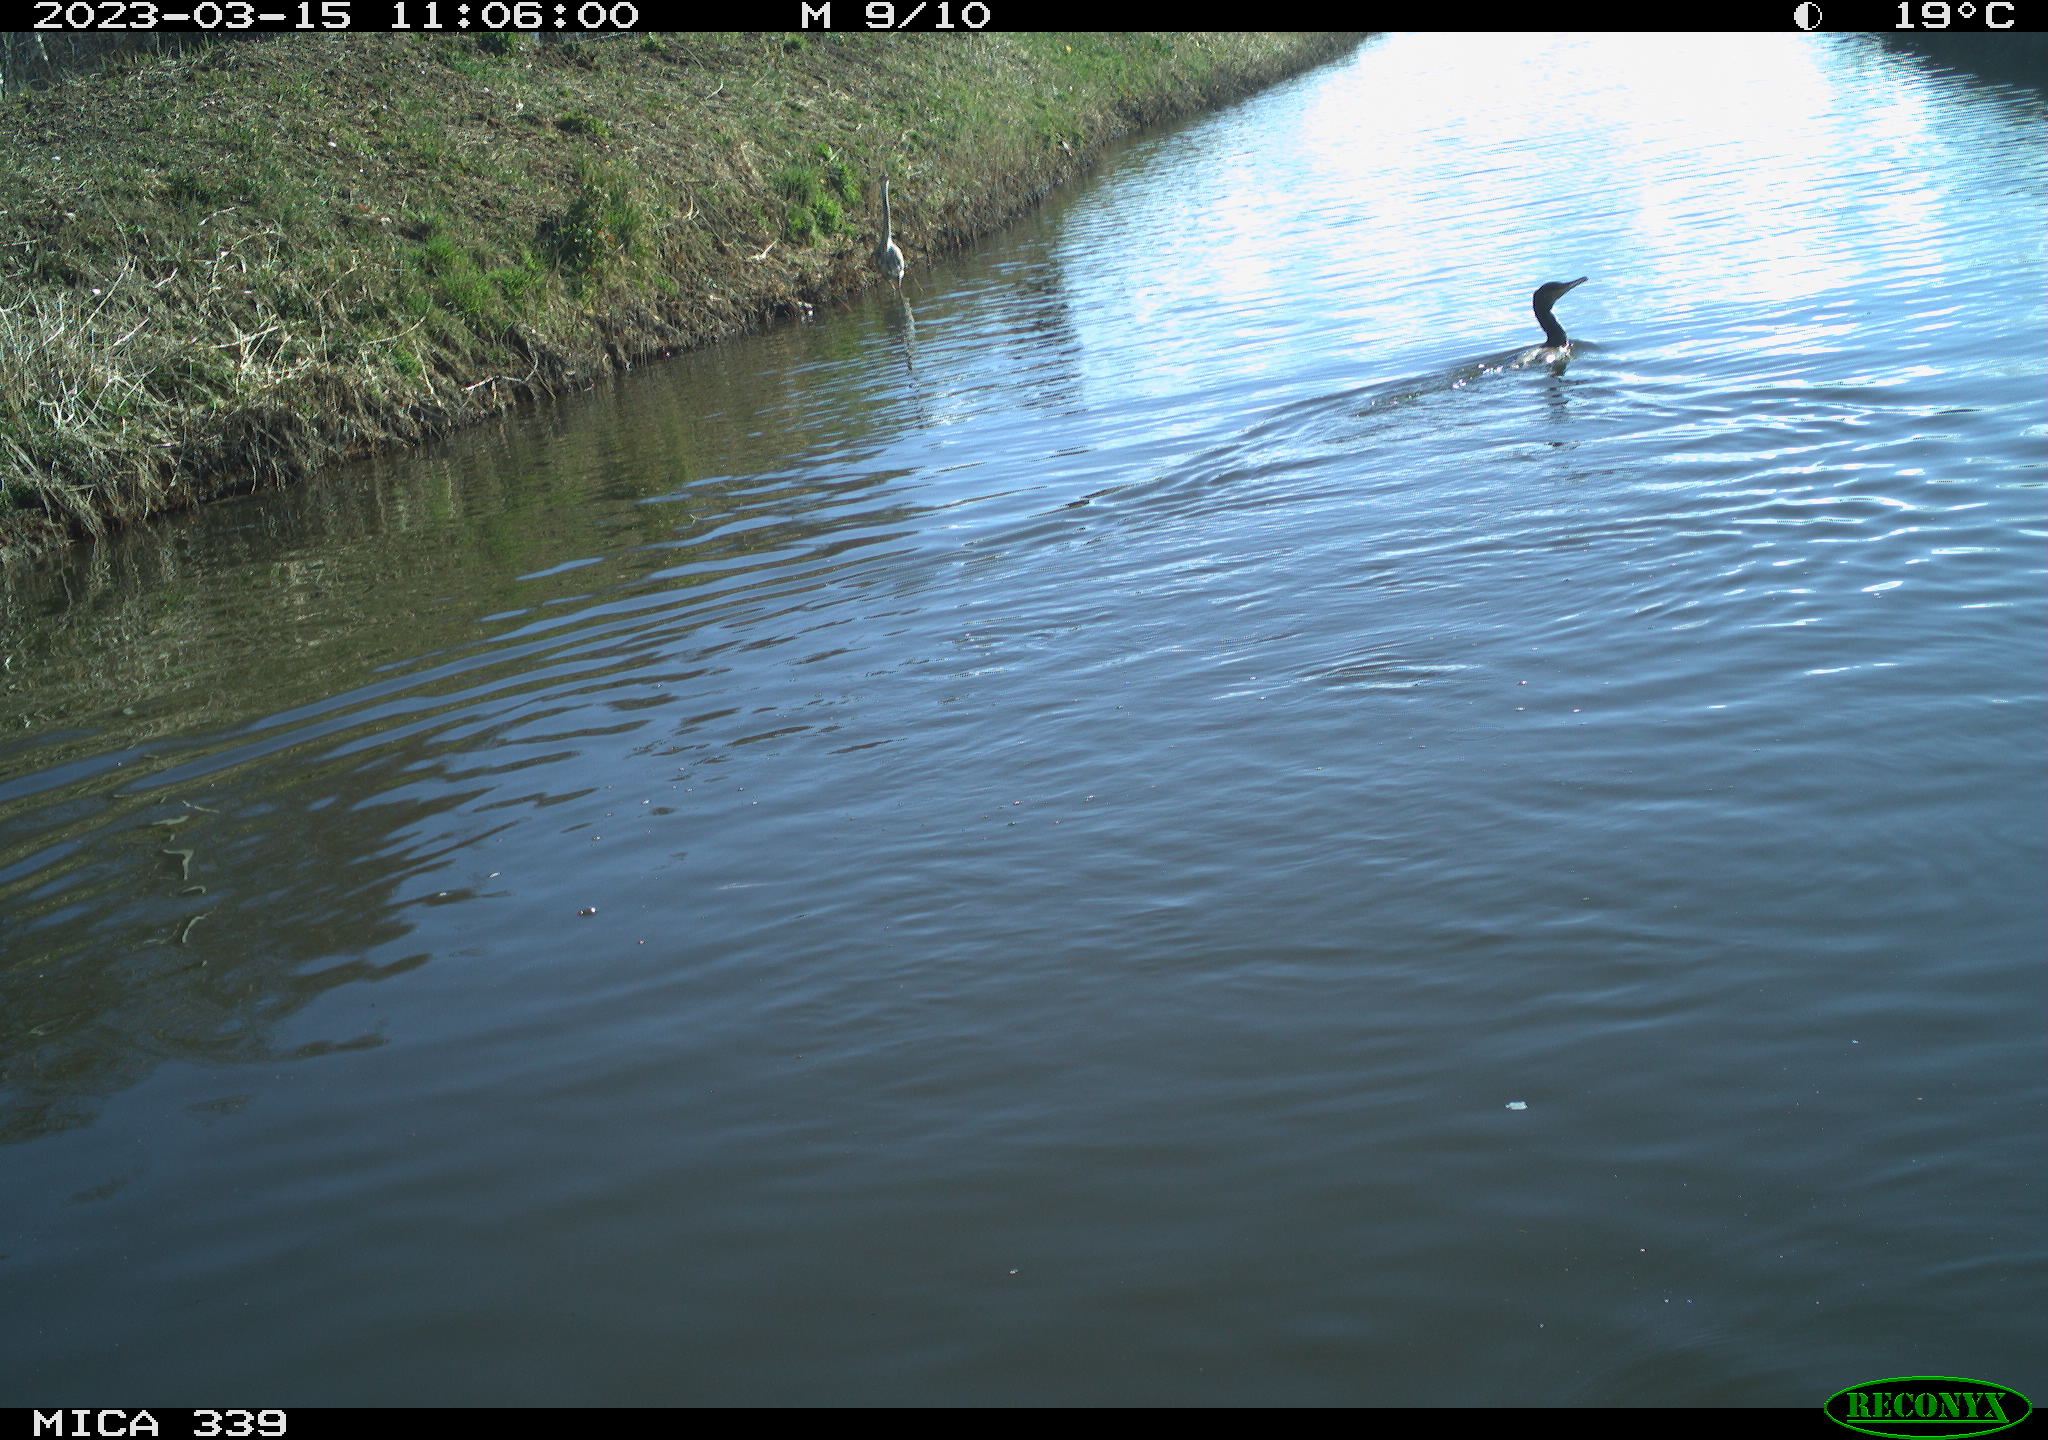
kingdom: Animalia
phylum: Chordata
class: Aves
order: Pelecaniformes
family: Ardeidae
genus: Ardea
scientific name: Ardea cinerea
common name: Grey heron
